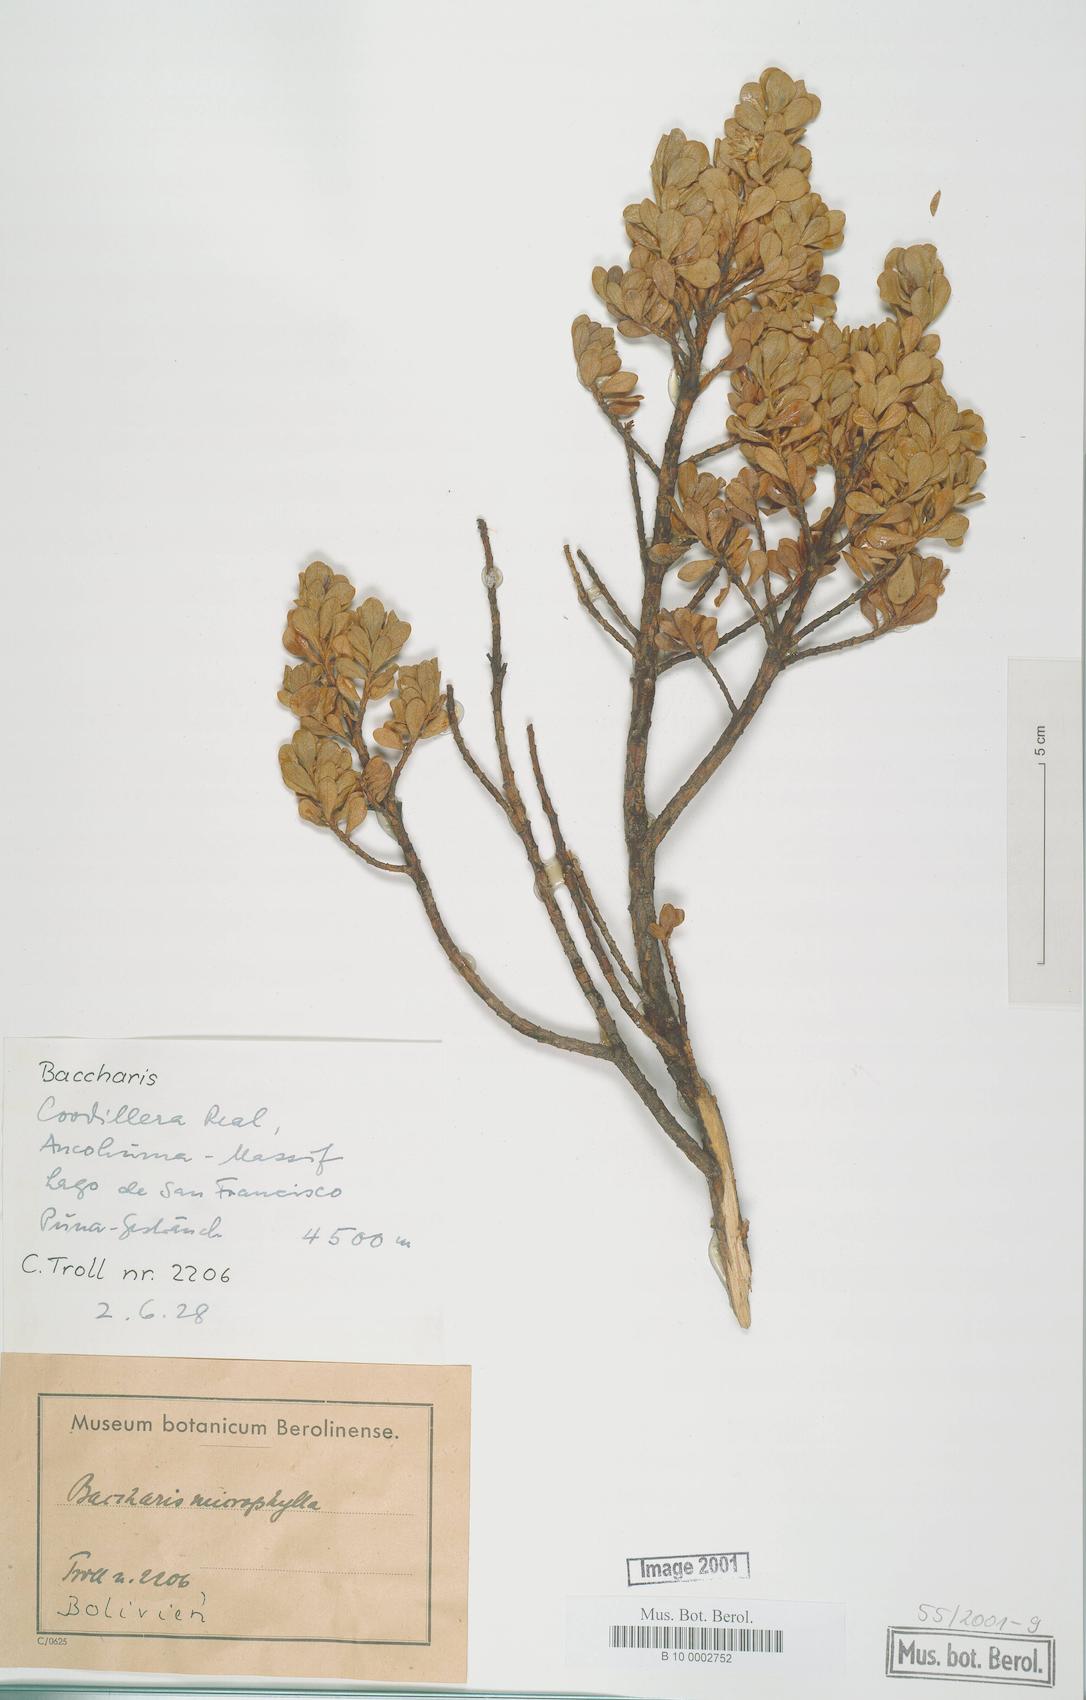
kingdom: Plantae
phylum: Tracheophyta
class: Magnoliopsida
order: Asterales
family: Asteraceae
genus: Baccharis
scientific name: Baccharis
